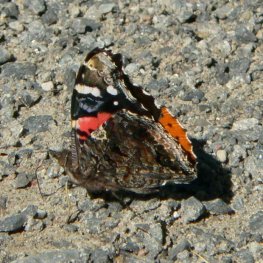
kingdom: Animalia
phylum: Arthropoda
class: Insecta
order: Lepidoptera
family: Nymphalidae
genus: Vanessa
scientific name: Vanessa atalanta
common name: Red Admiral
